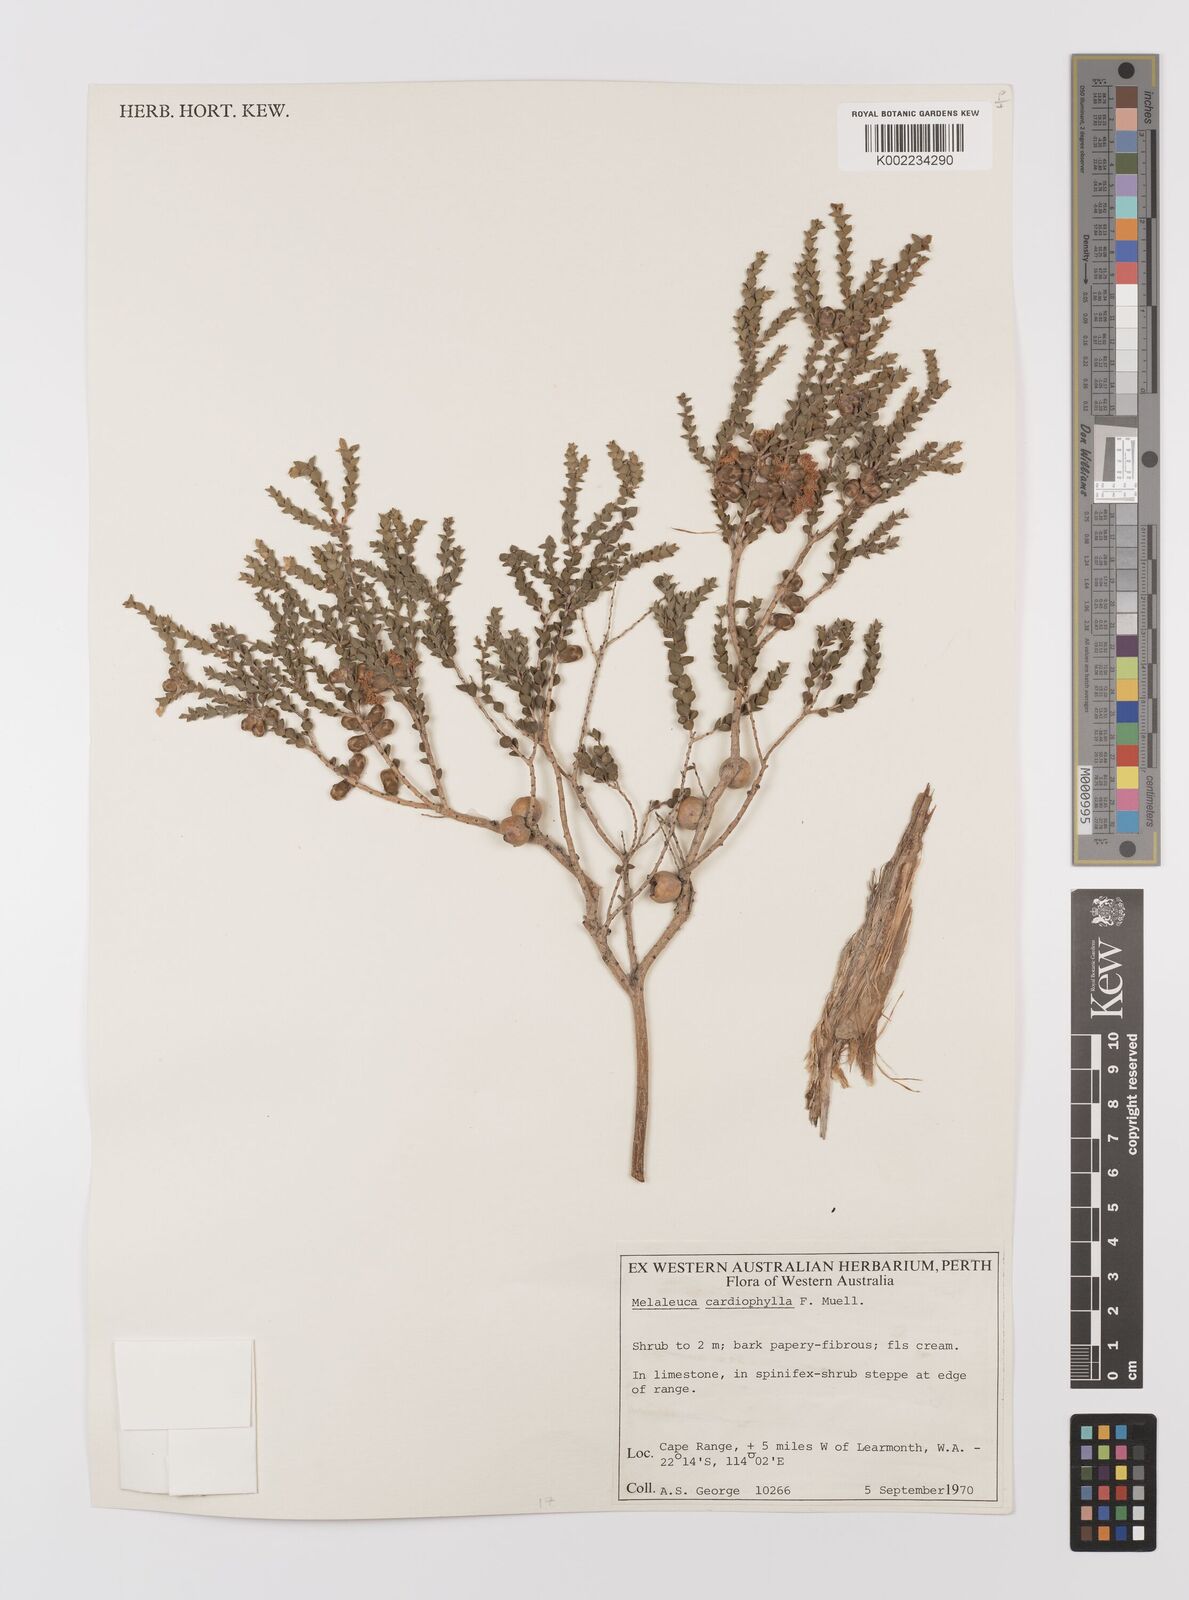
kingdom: Plantae
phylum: Tracheophyta
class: Magnoliopsida
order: Myrtales
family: Myrtaceae
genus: Melaleuca
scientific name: Melaleuca cardiophylla
